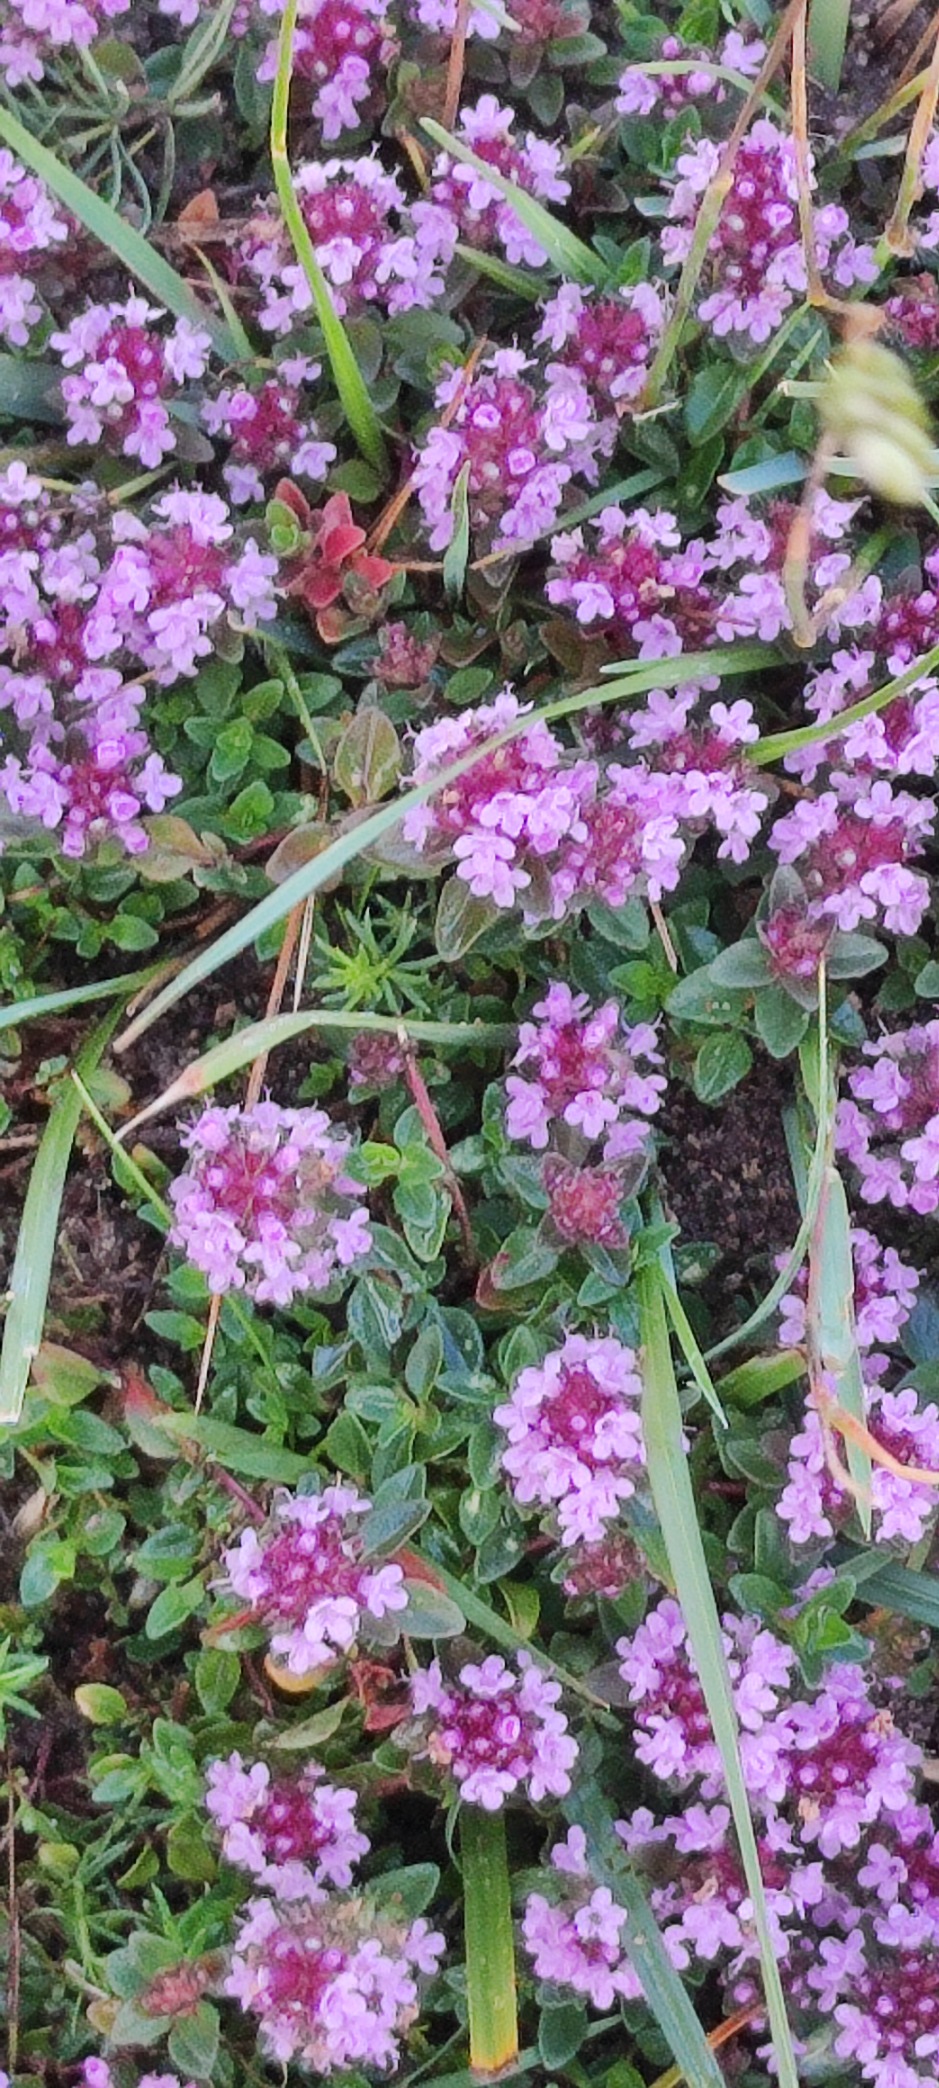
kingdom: Plantae
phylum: Tracheophyta
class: Magnoliopsida
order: Lamiales
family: Lamiaceae
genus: Thymus
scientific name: Thymus pulegioides
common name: Bredbladet timian
